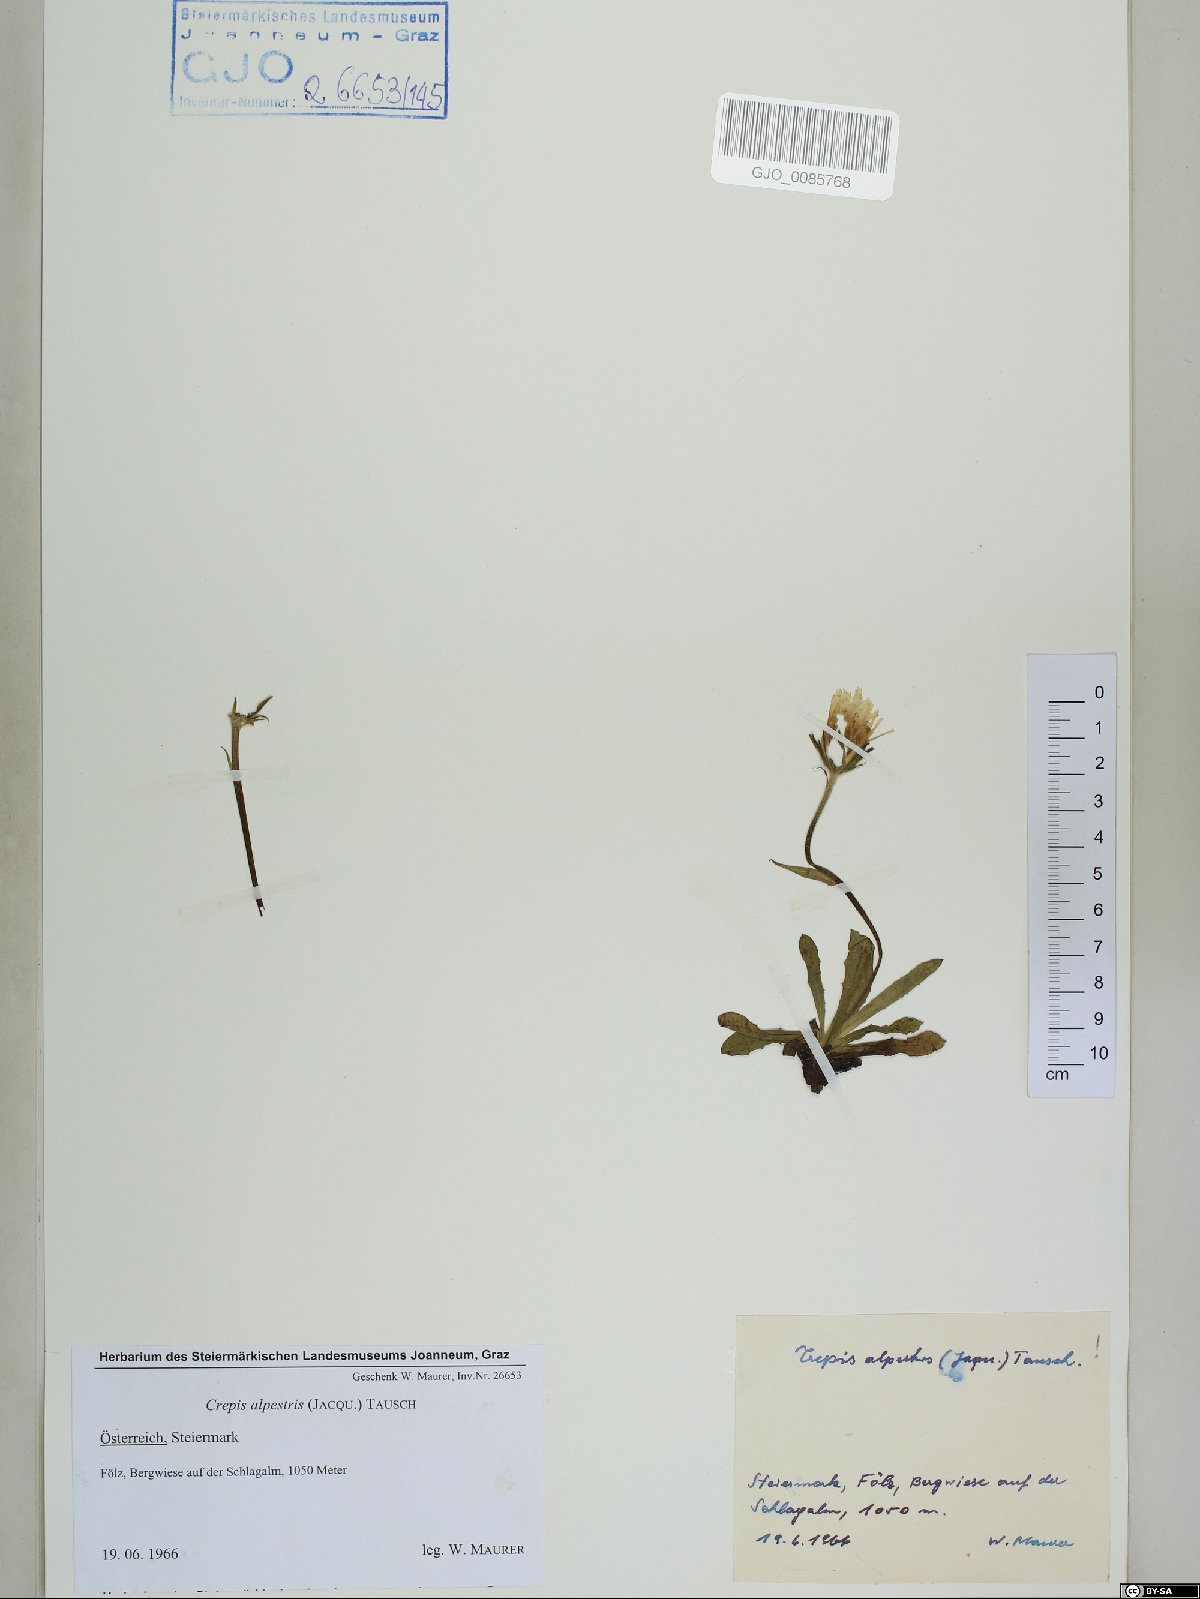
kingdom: Plantae
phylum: Tracheophyta
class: Magnoliopsida
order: Asterales
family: Asteraceae
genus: Crepis
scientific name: Crepis alpestris
